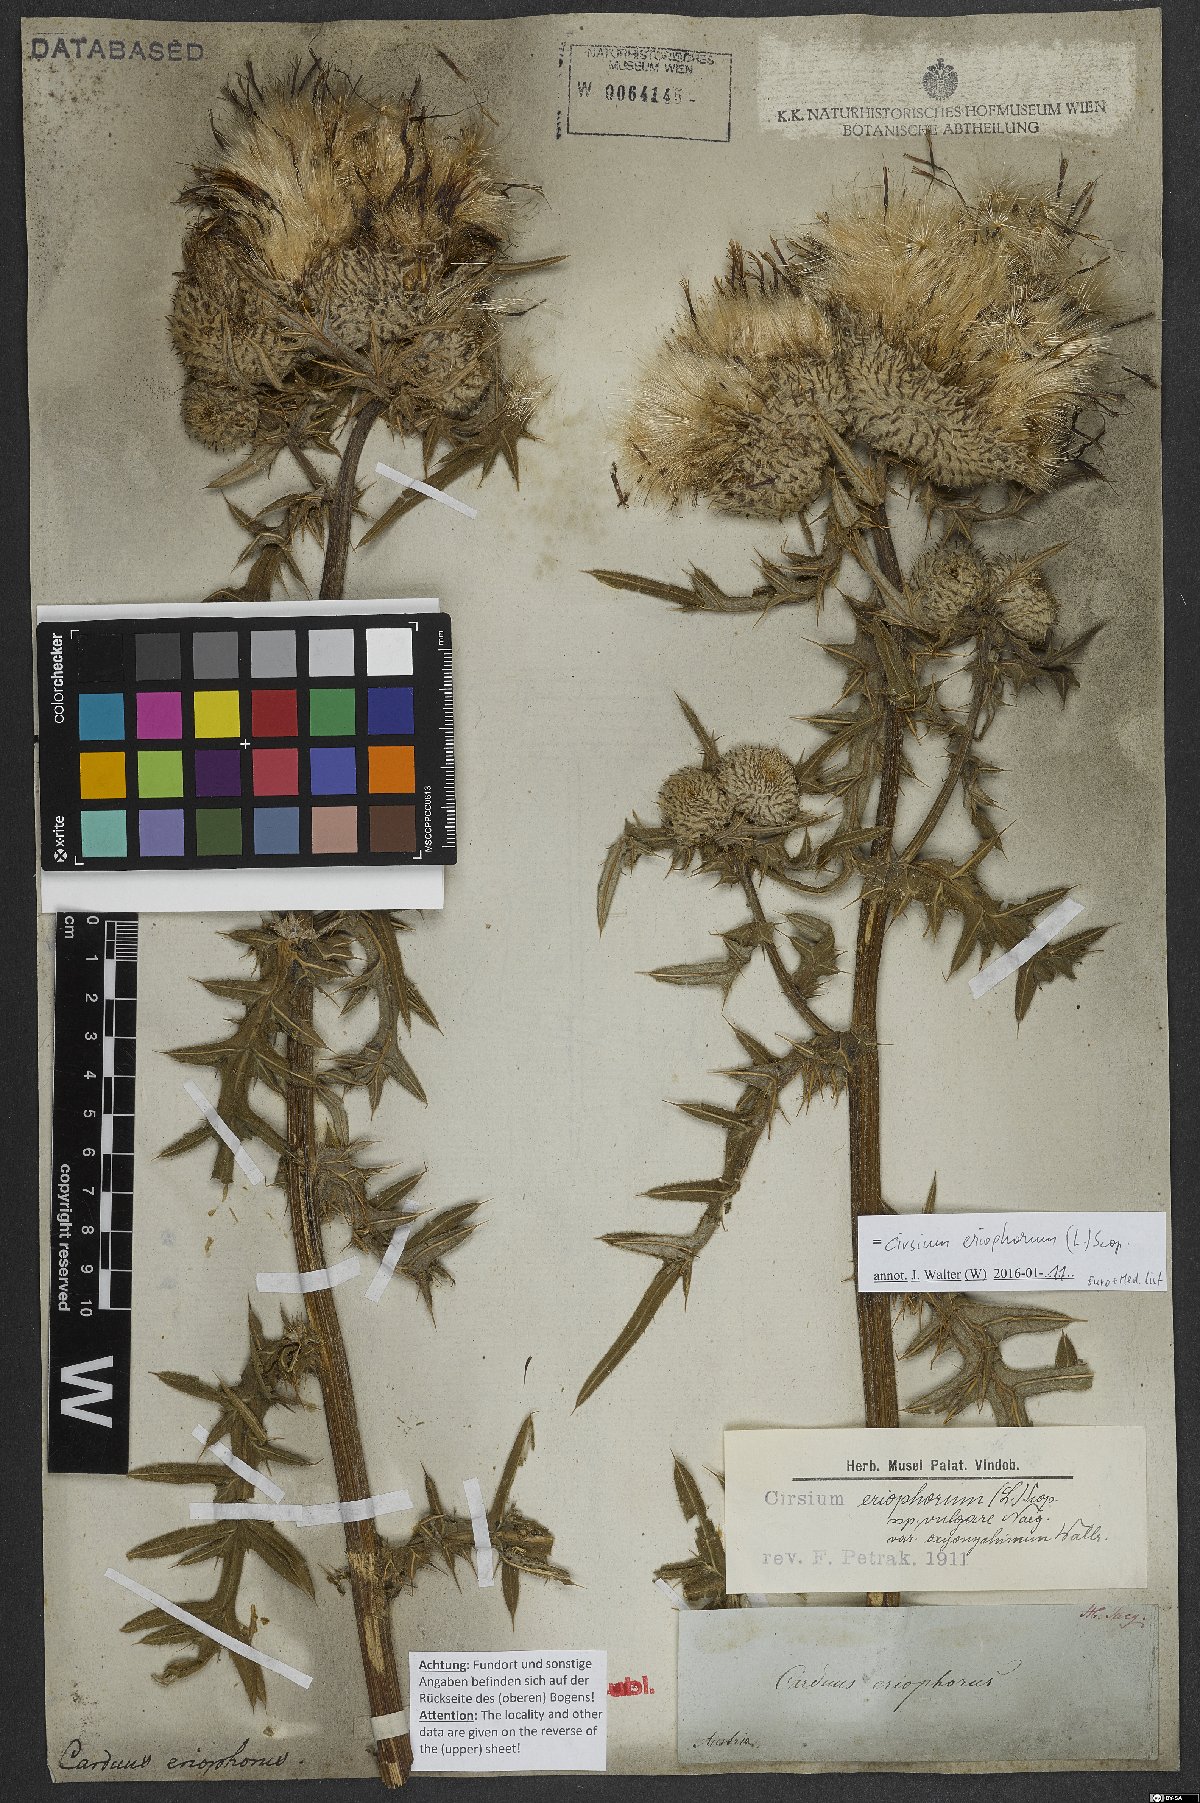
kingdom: Plantae
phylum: Tracheophyta
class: Magnoliopsida
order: Asterales
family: Asteraceae
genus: Lophiolepis
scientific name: Lophiolepis eriophora
